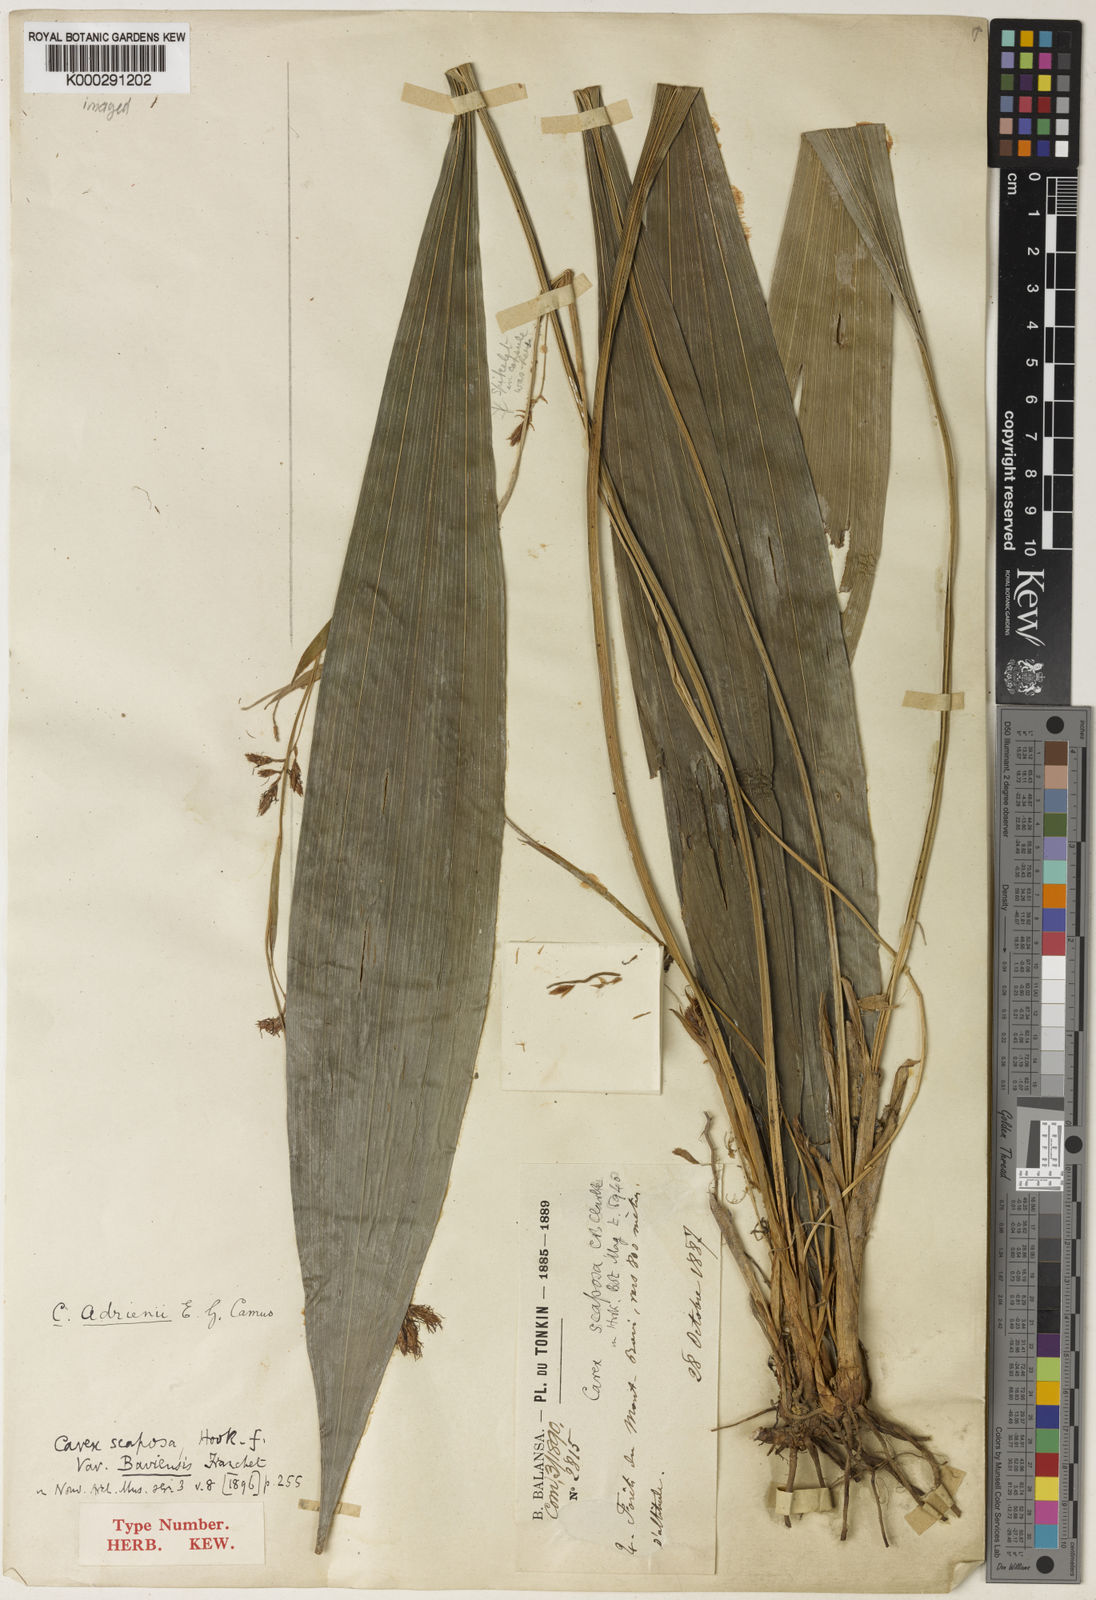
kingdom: Plantae
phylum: Tracheophyta
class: Liliopsida
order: Poales
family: Cyperaceae
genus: Carex
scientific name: Carex adrienii
